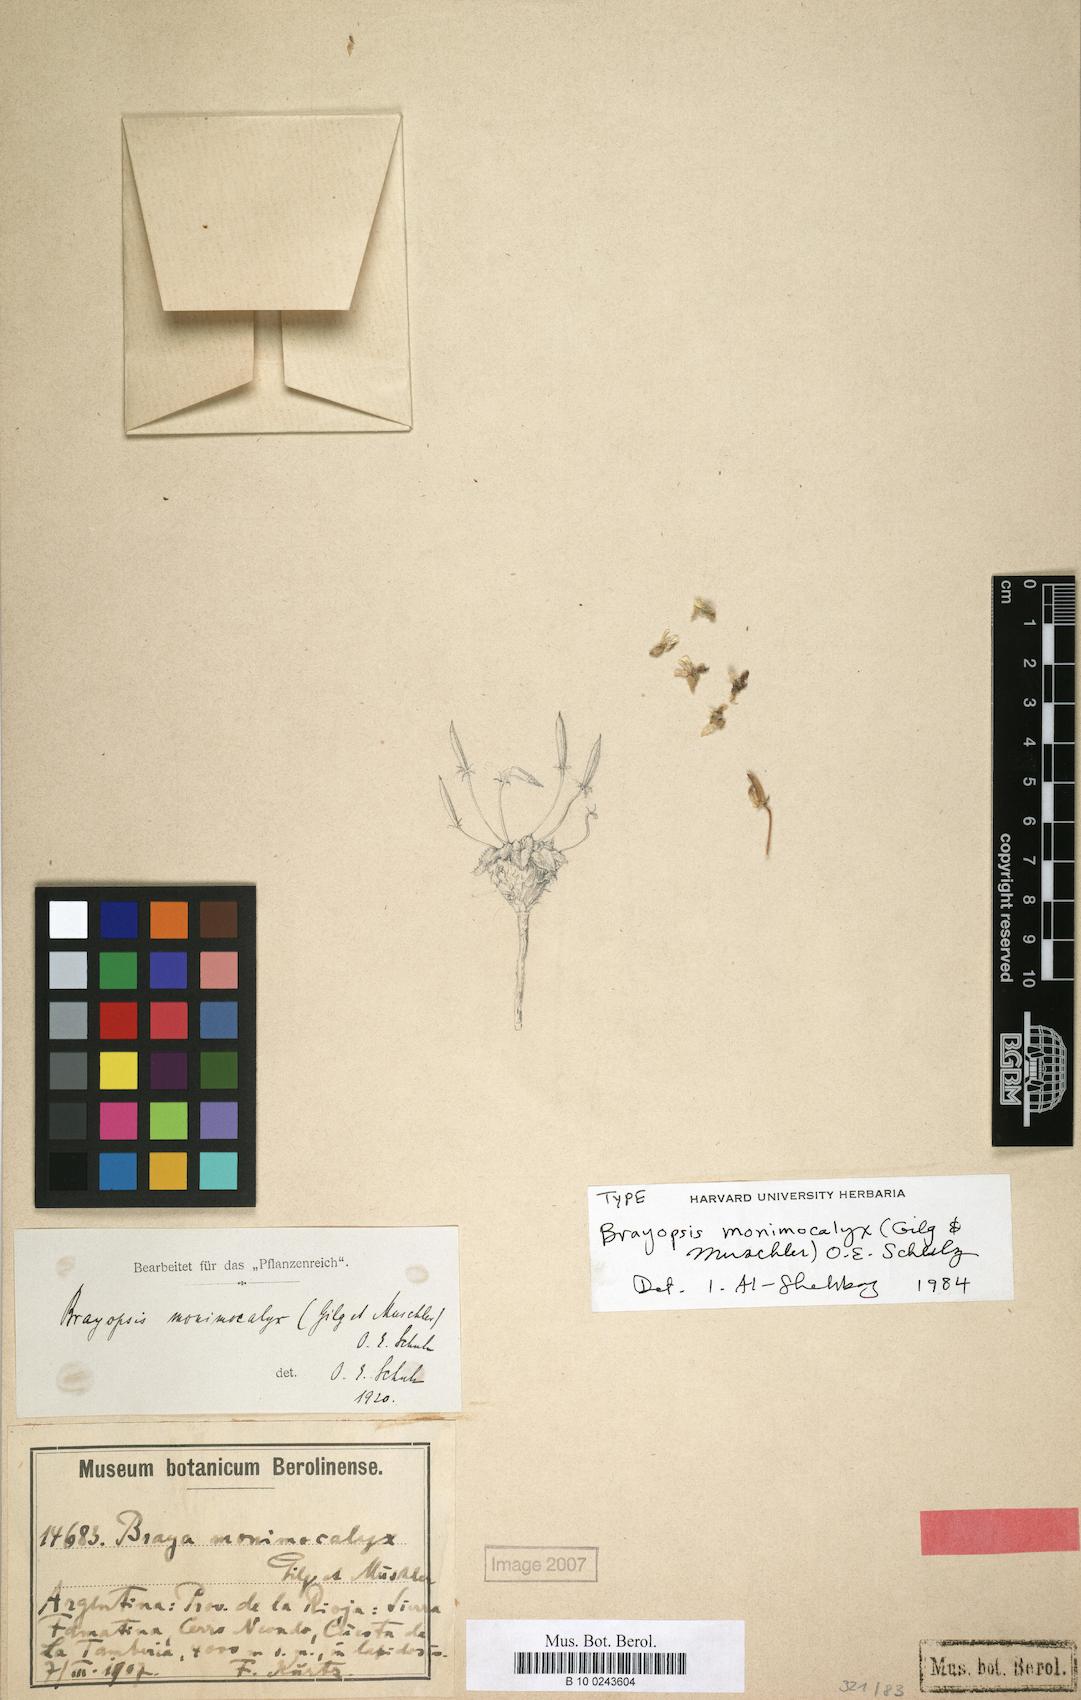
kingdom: Plantae
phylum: Tracheophyta
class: Magnoliopsida
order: Brassicales
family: Brassicaceae
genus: Brayopsis
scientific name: Brayopsis monimocalyx
